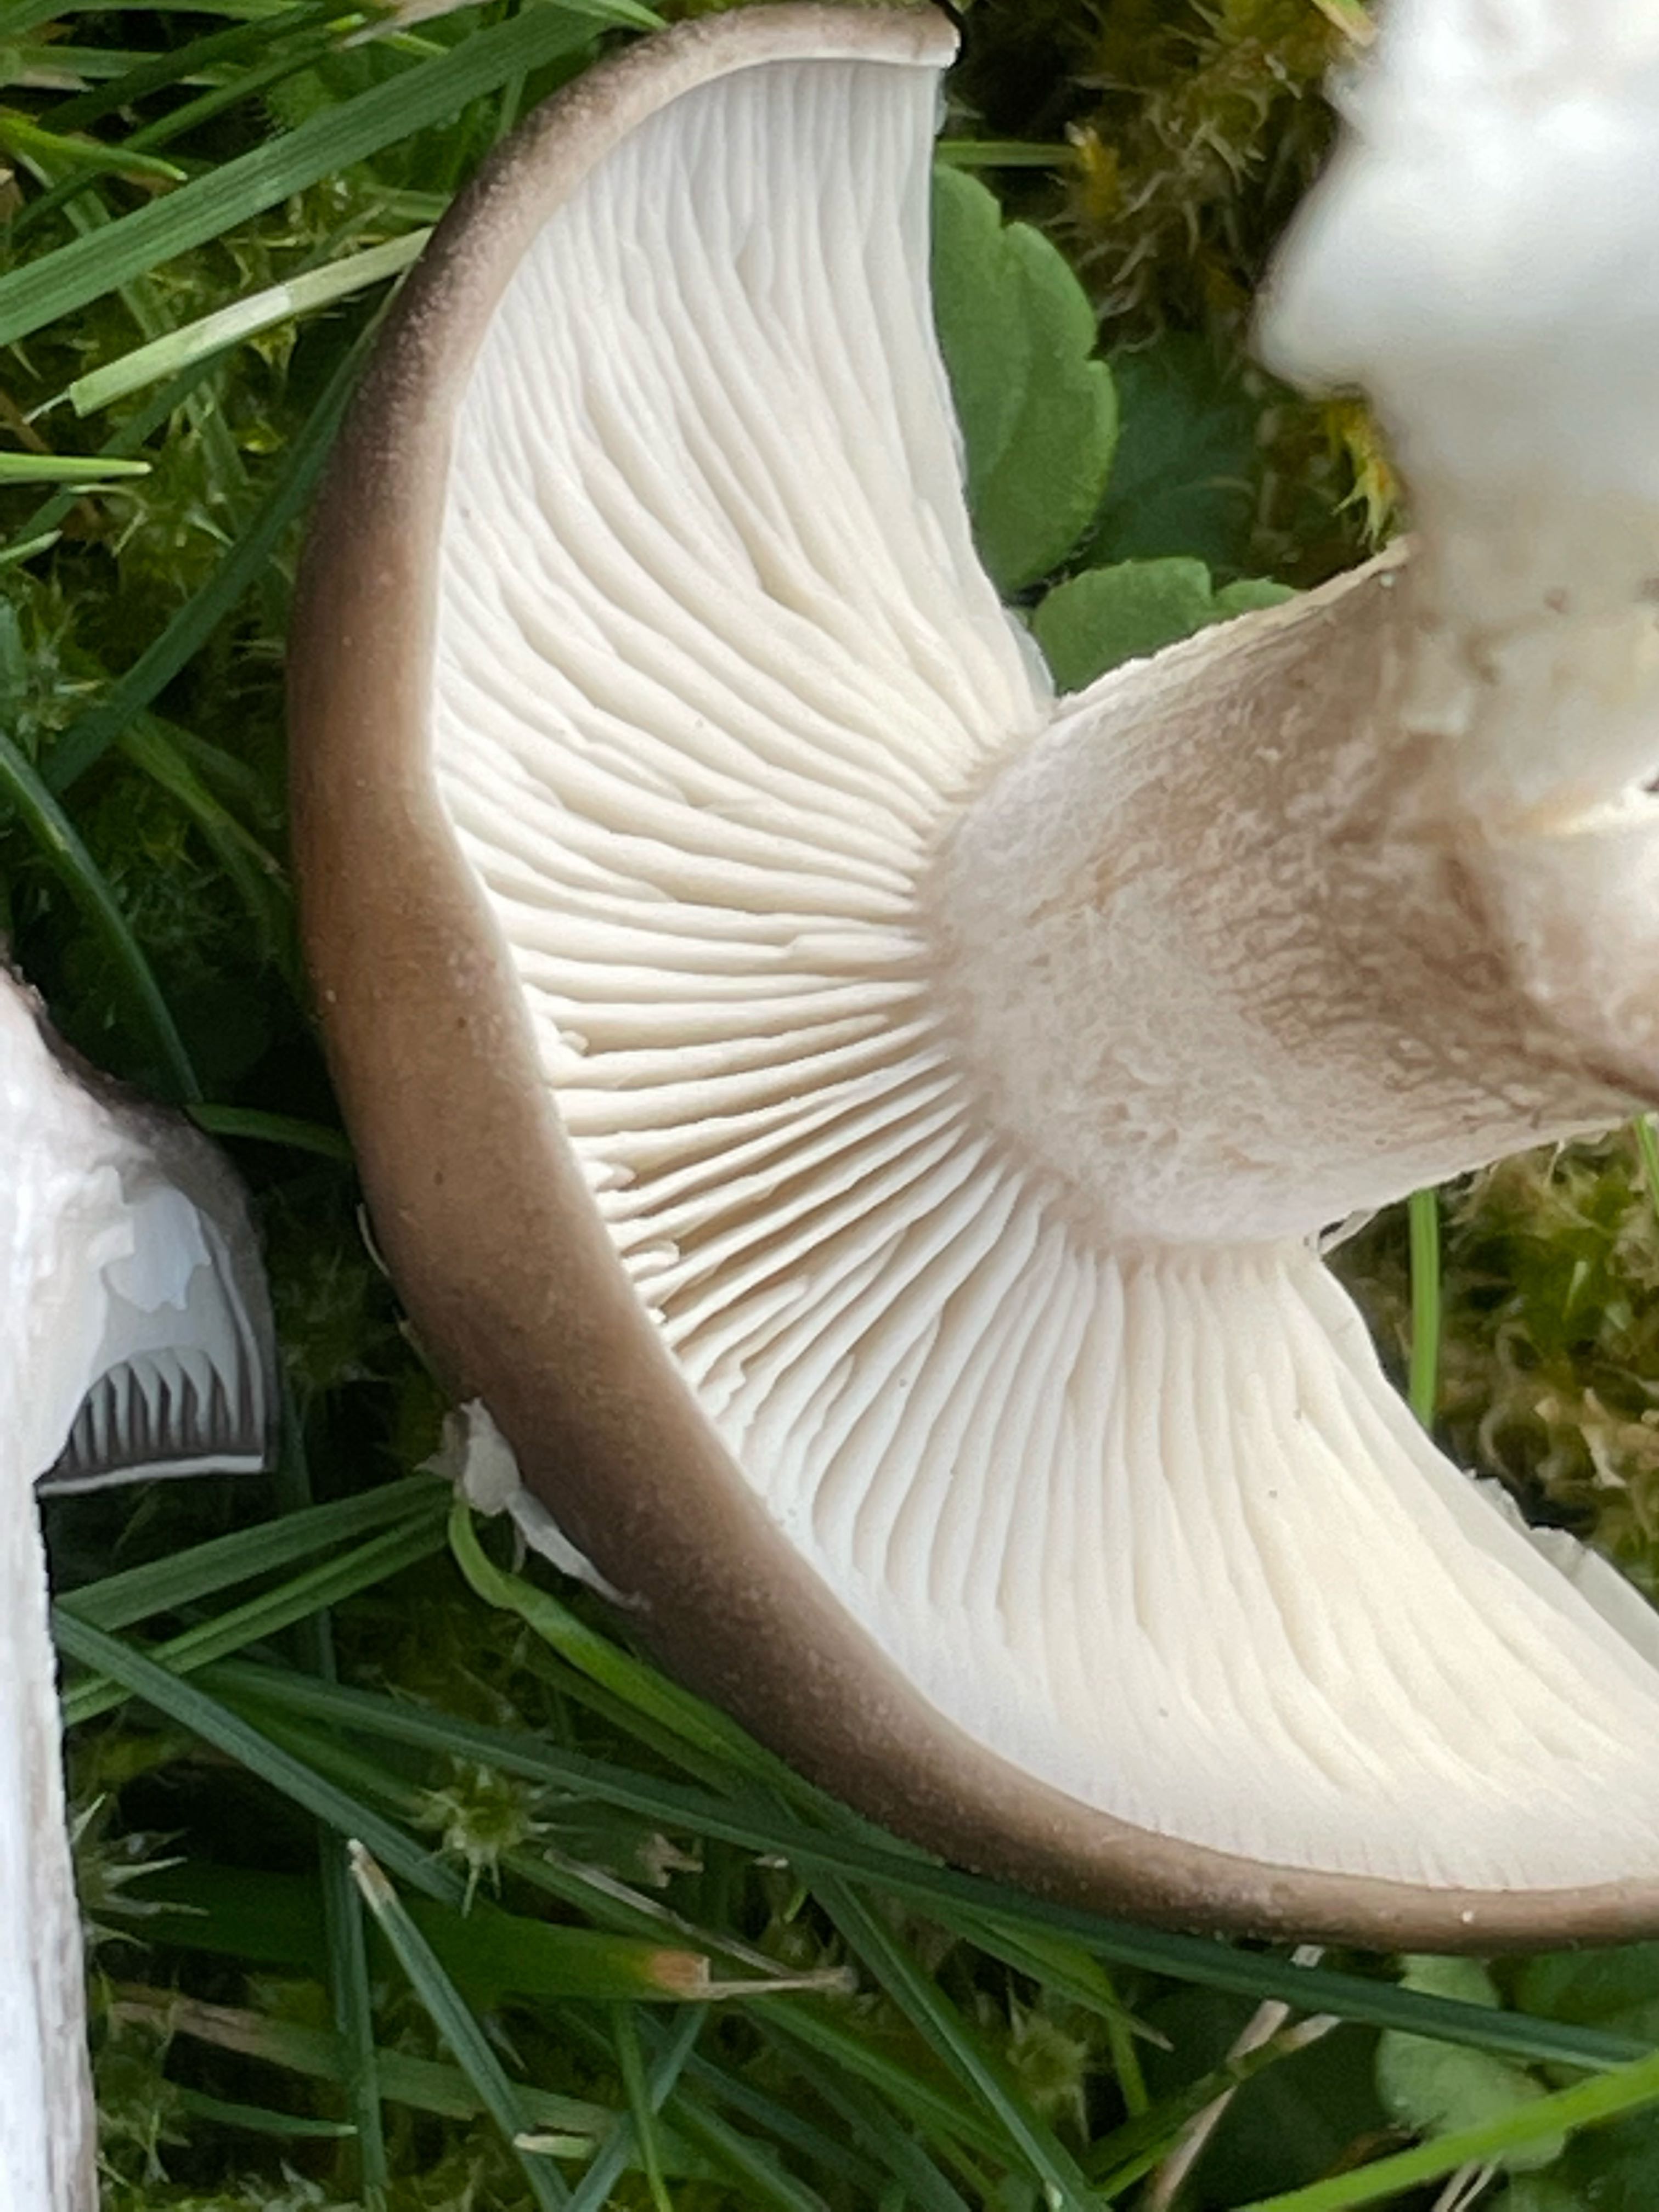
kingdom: Fungi
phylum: Basidiomycota
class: Agaricomycetes
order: Agaricales
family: Lyophyllaceae
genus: Lyophyllum
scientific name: Lyophyllum decastes
